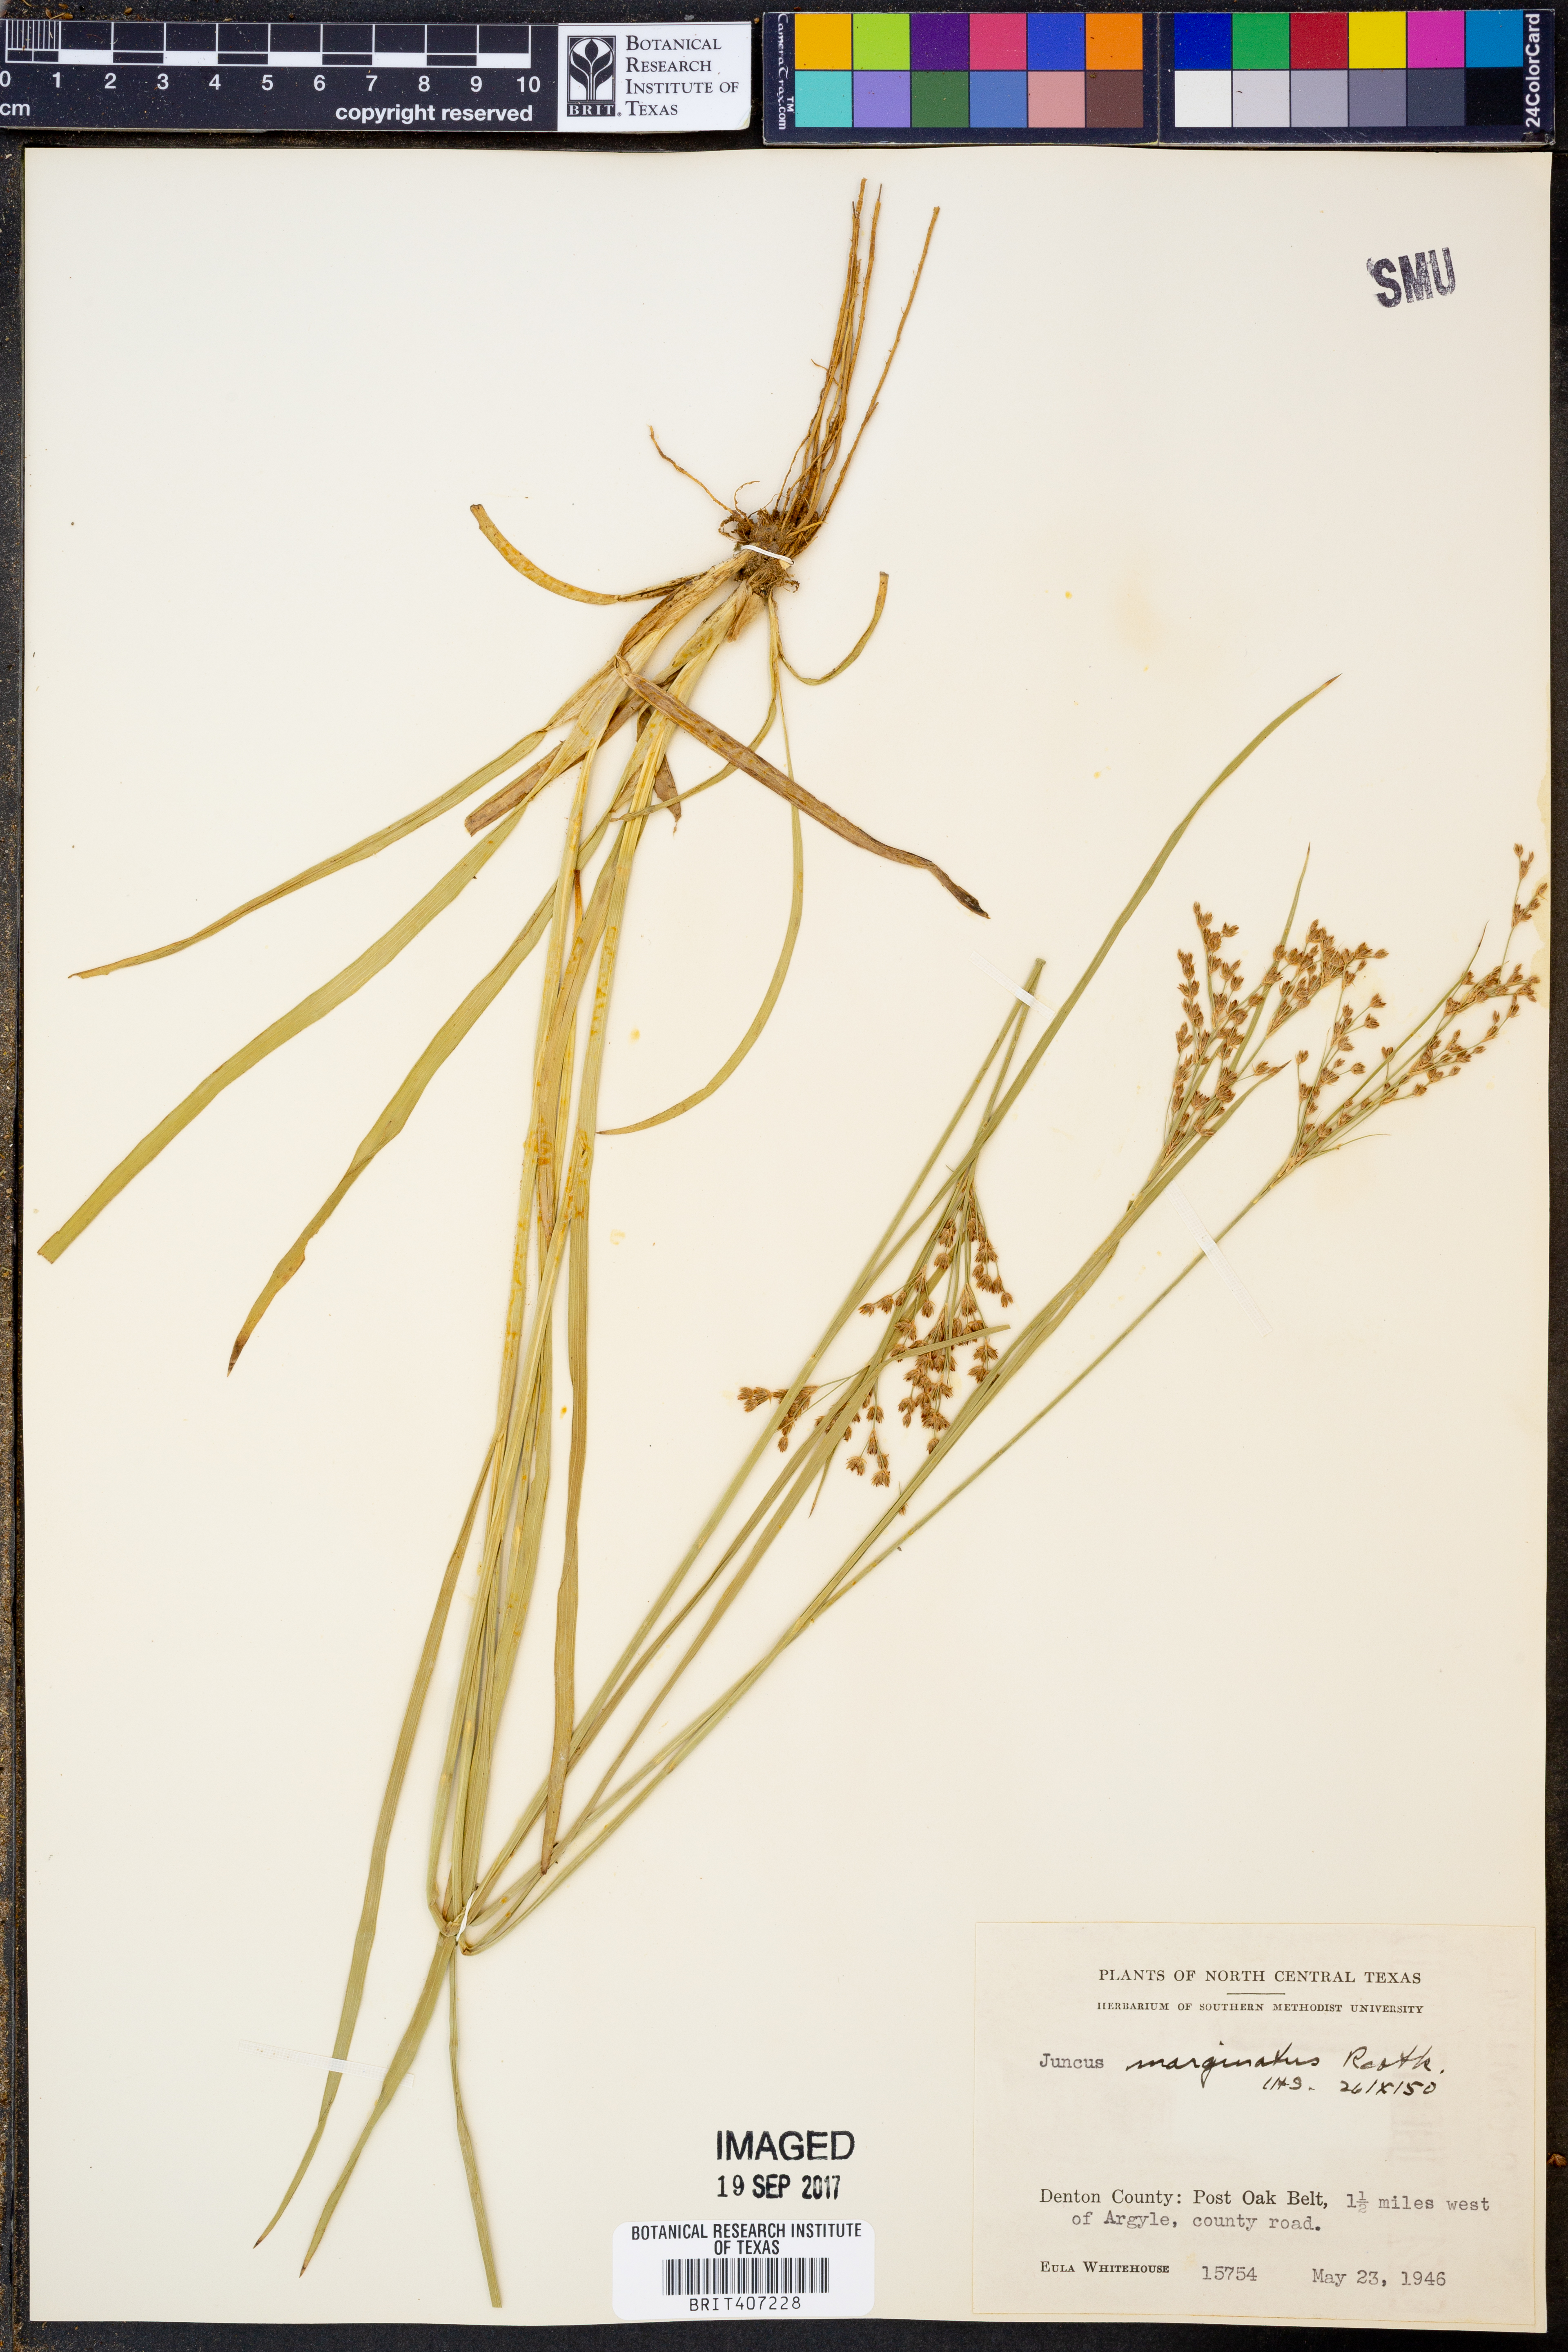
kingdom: Plantae
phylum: Tracheophyta
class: Liliopsida
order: Poales
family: Juncaceae
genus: Juncus
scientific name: Juncus marginatus
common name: Grass-leaf rush
